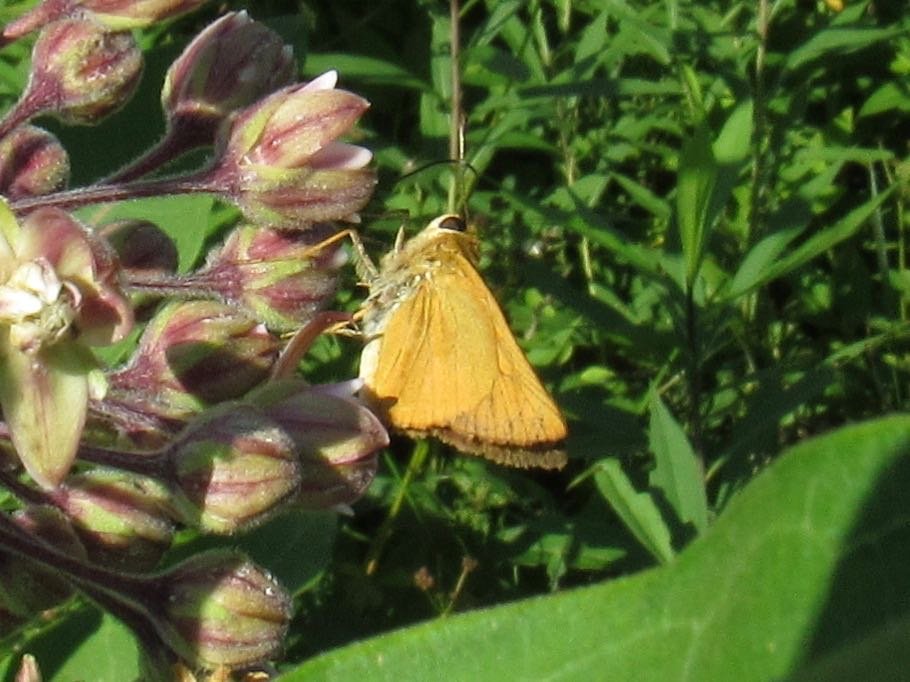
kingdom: Animalia
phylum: Arthropoda
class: Insecta
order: Lepidoptera
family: Hesperiidae
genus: Atrytone
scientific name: Atrytone delaware
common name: Delaware Skipper
